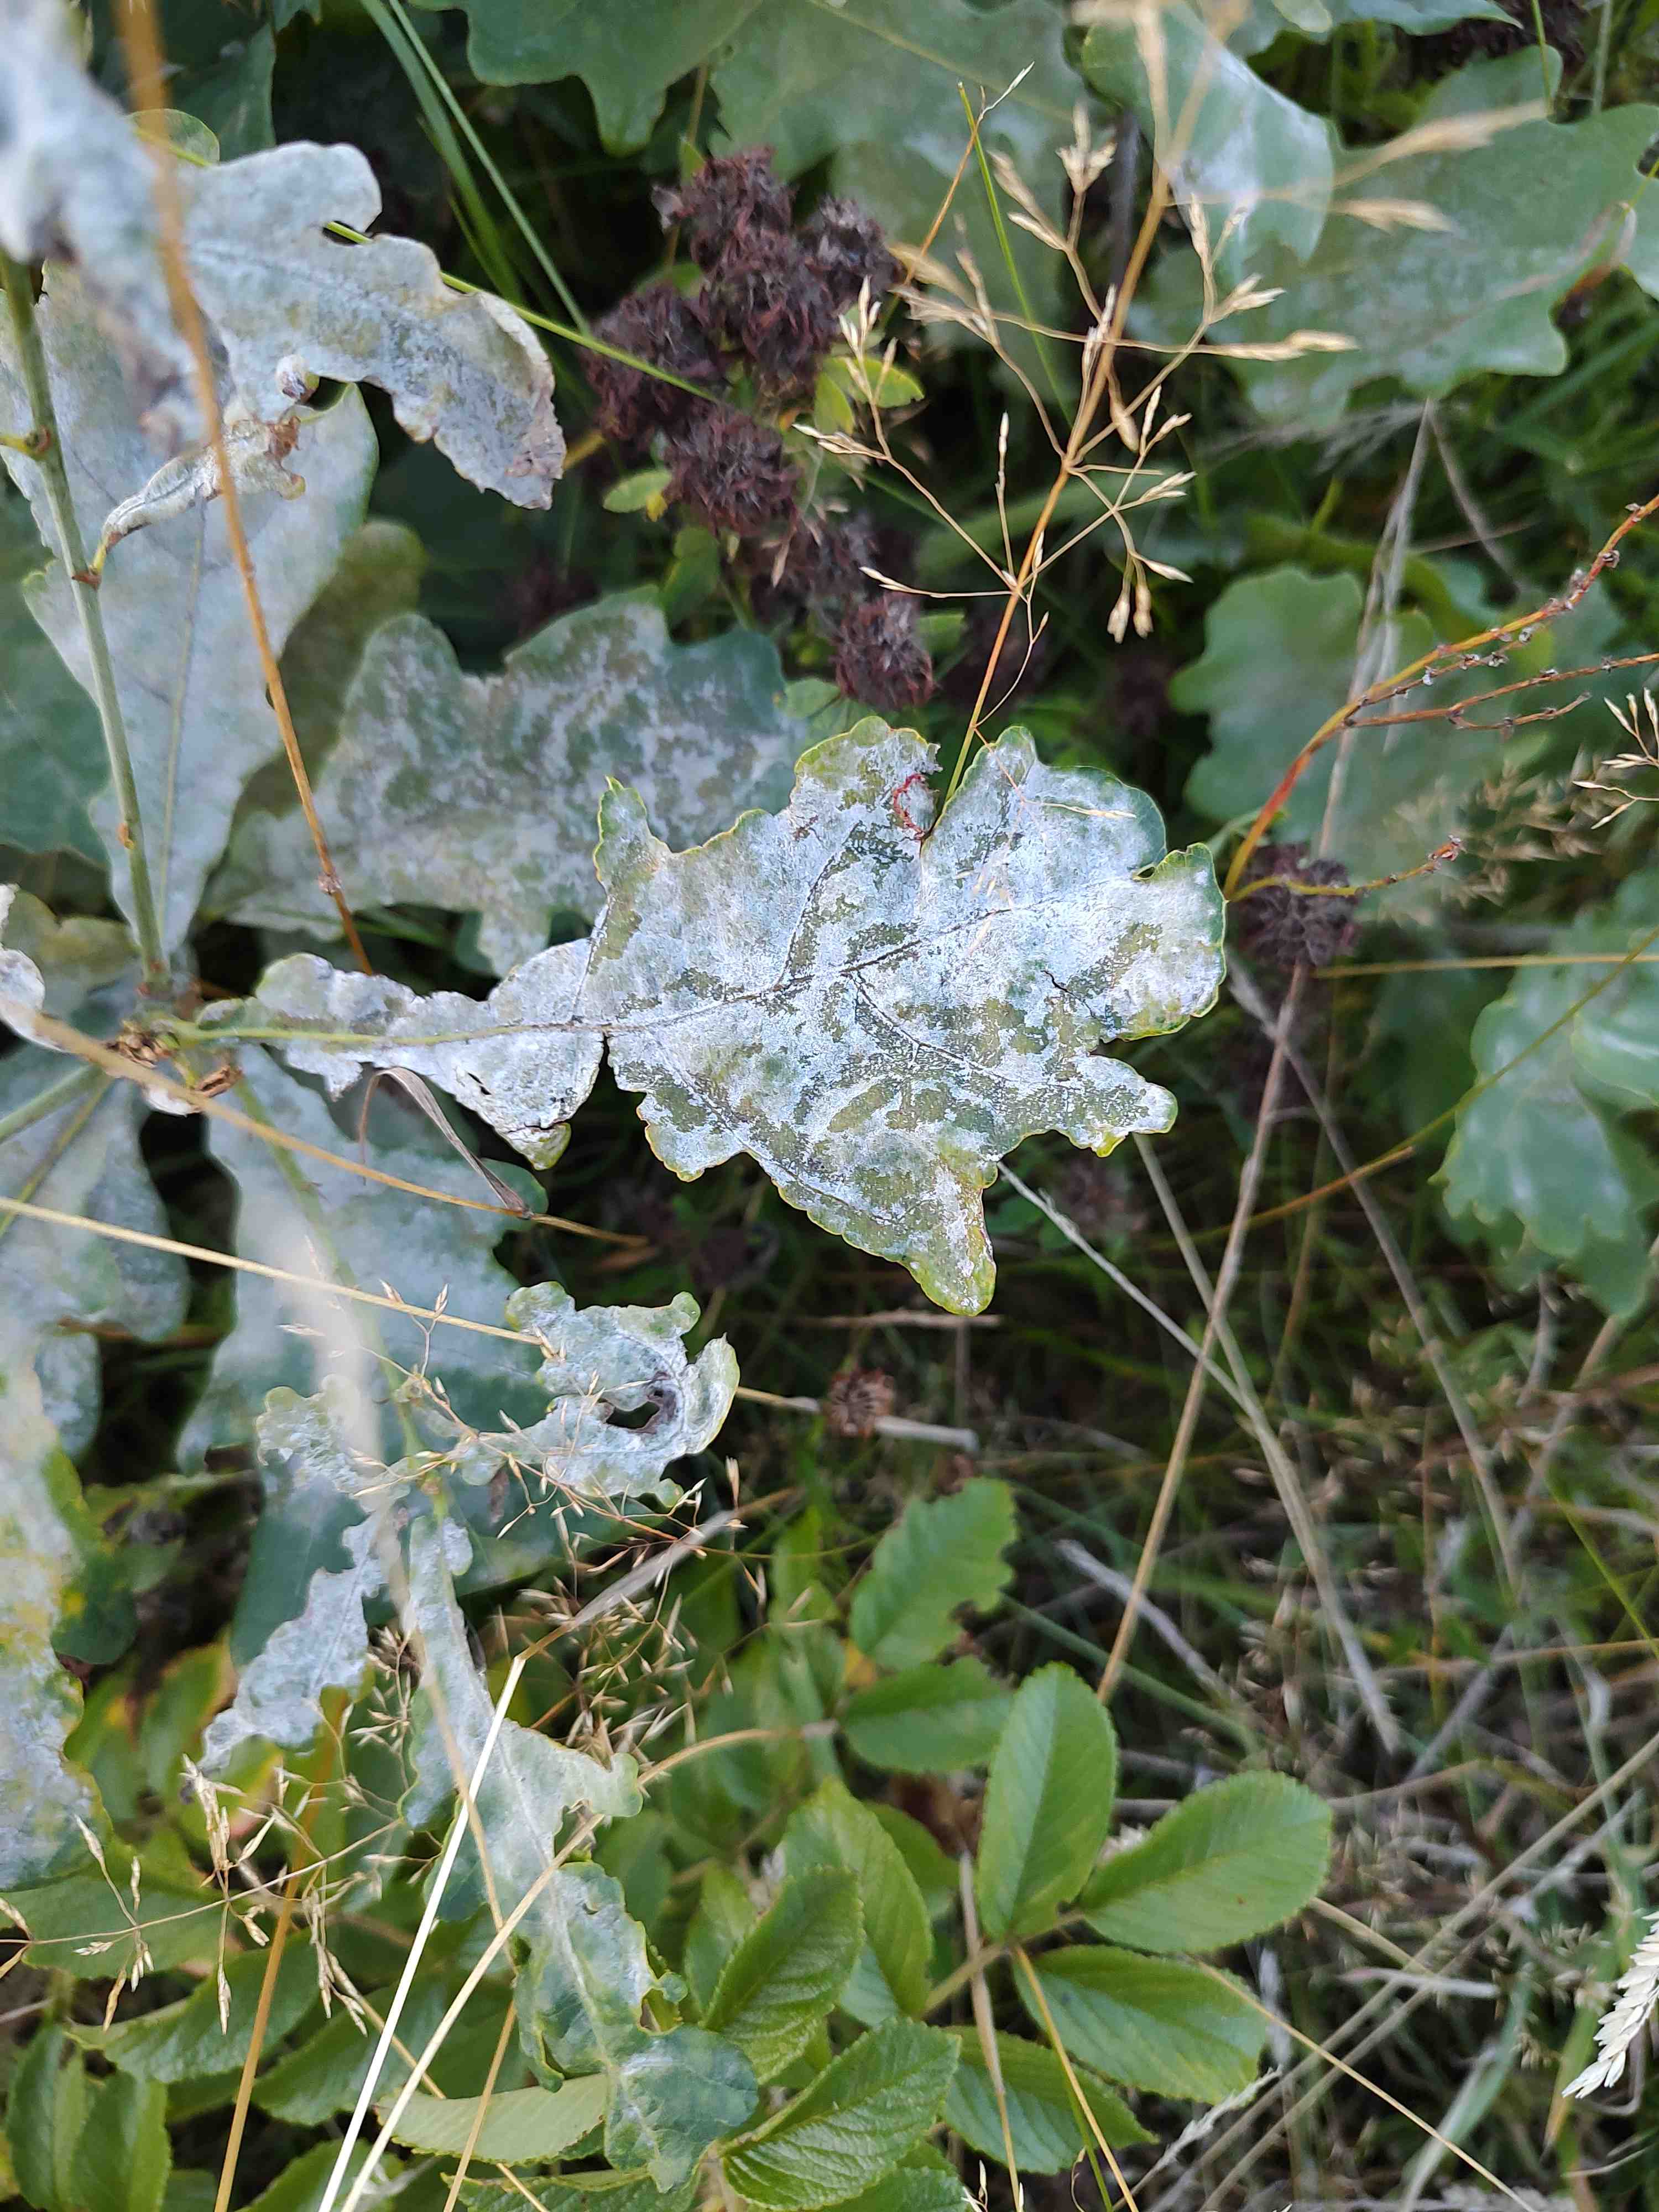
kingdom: Fungi
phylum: Ascomycota
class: Leotiomycetes
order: Helotiales
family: Erysiphaceae
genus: Erysiphe
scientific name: Erysiphe alphitoides
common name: ege-meldug
